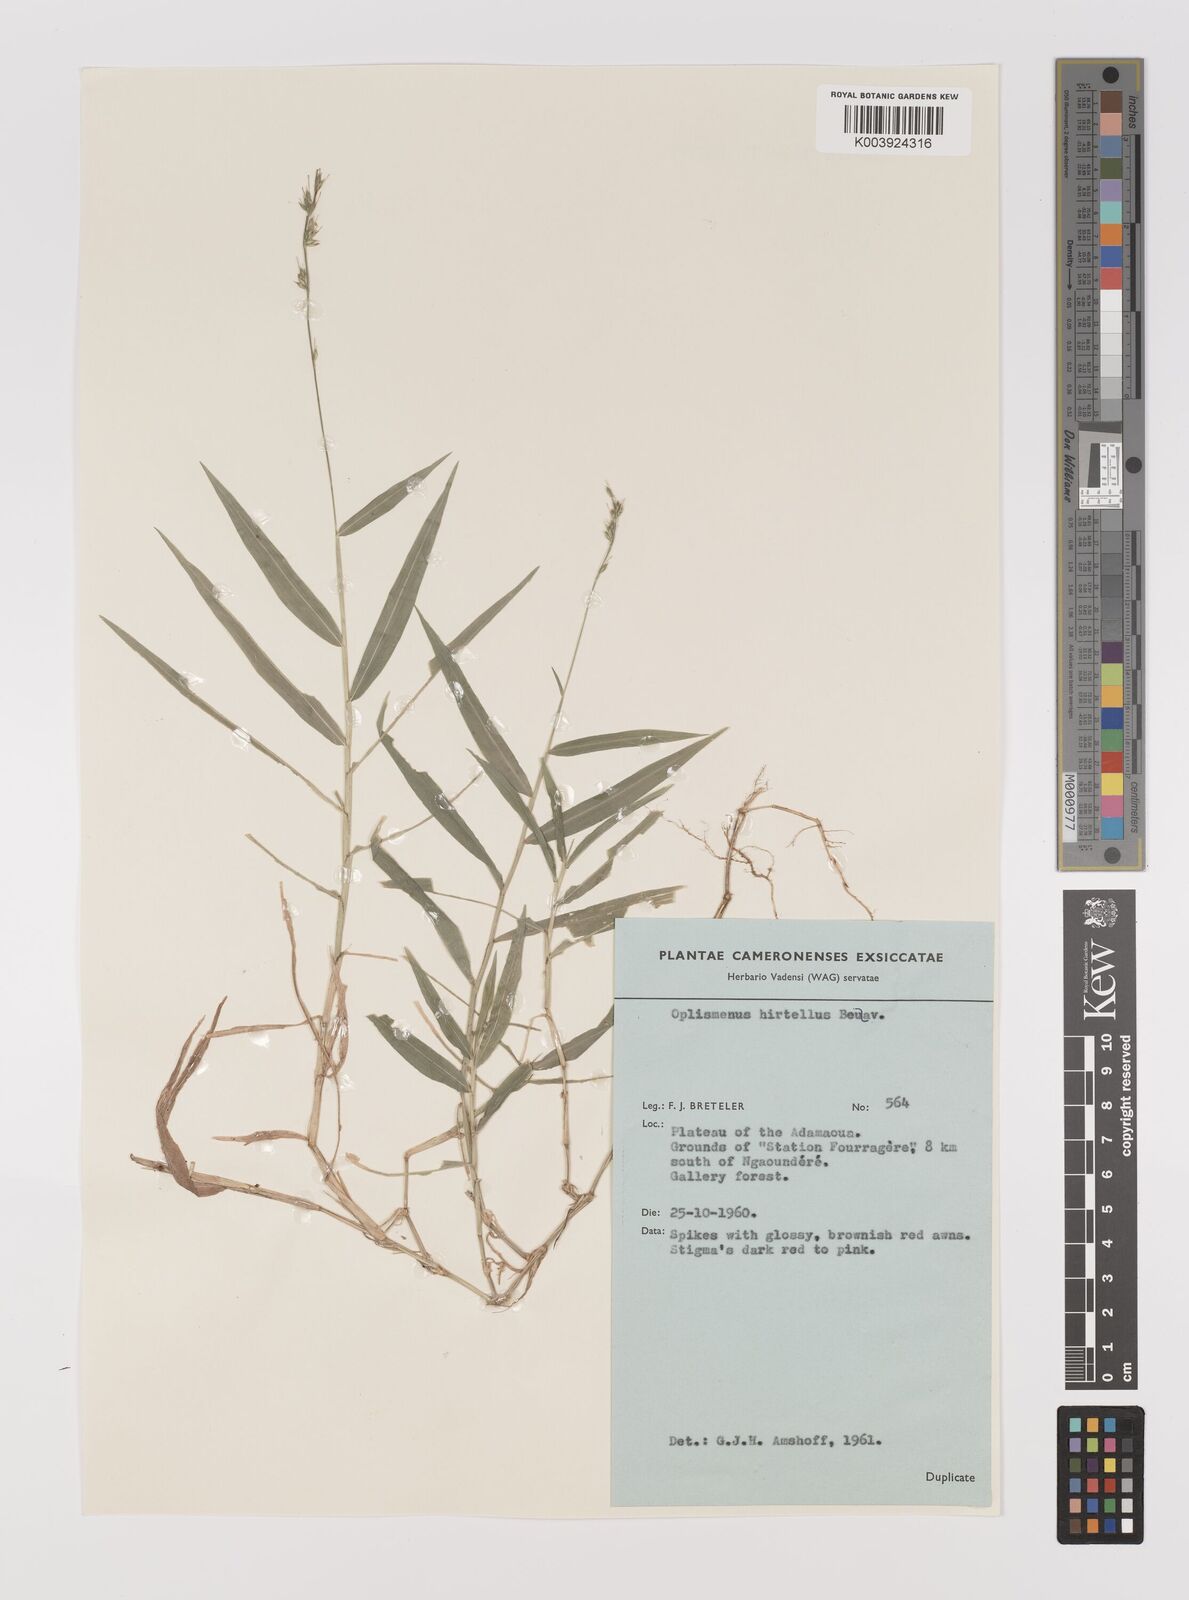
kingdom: Plantae
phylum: Tracheophyta
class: Liliopsida
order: Poales
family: Poaceae
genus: Oplismenus
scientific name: Oplismenus hirtellus
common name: Basketgrass
